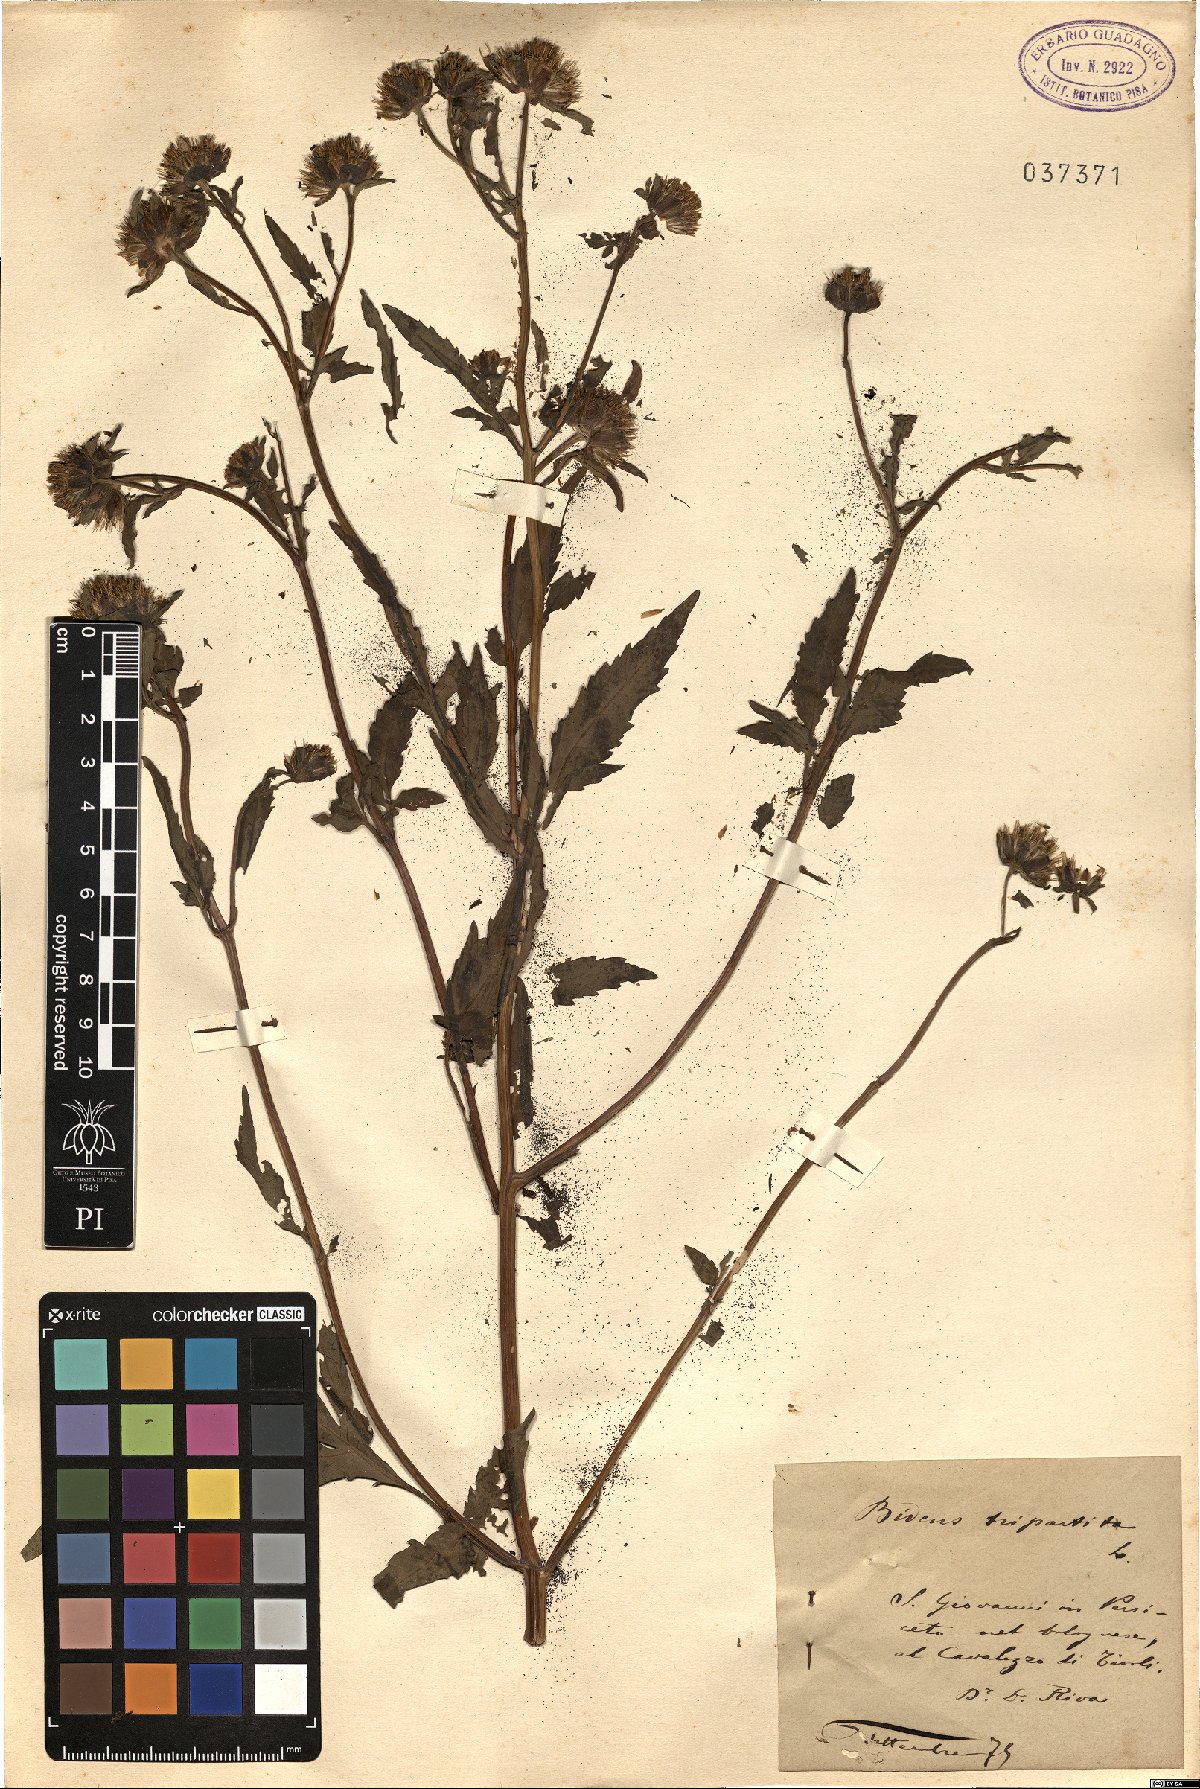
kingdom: Plantae
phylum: Tracheophyta
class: Magnoliopsida
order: Asterales
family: Asteraceae
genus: Bidens
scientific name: Bidens tripartita
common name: Trifid bur-marigold
